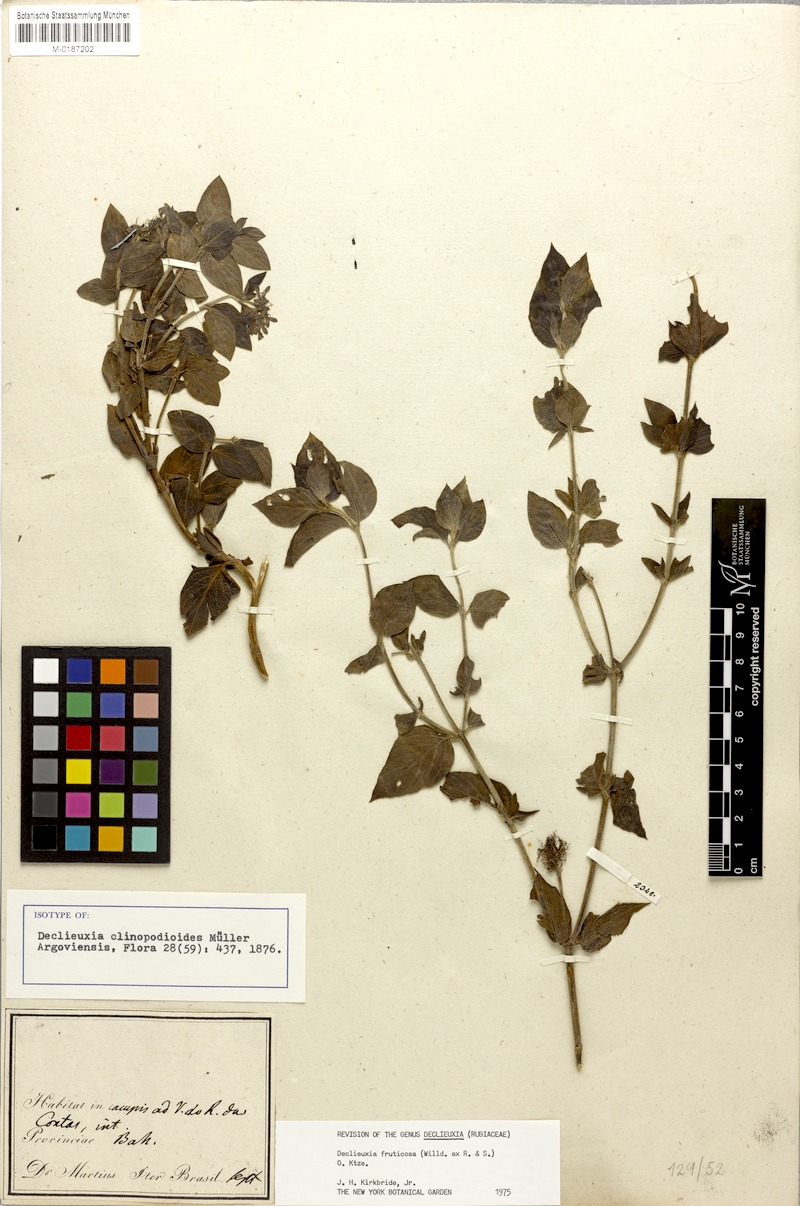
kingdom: Plantae
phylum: Tracheophyta
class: Magnoliopsida
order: Gentianales
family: Rubiaceae
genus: Declieuxia
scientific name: Declieuxia fruticosa
